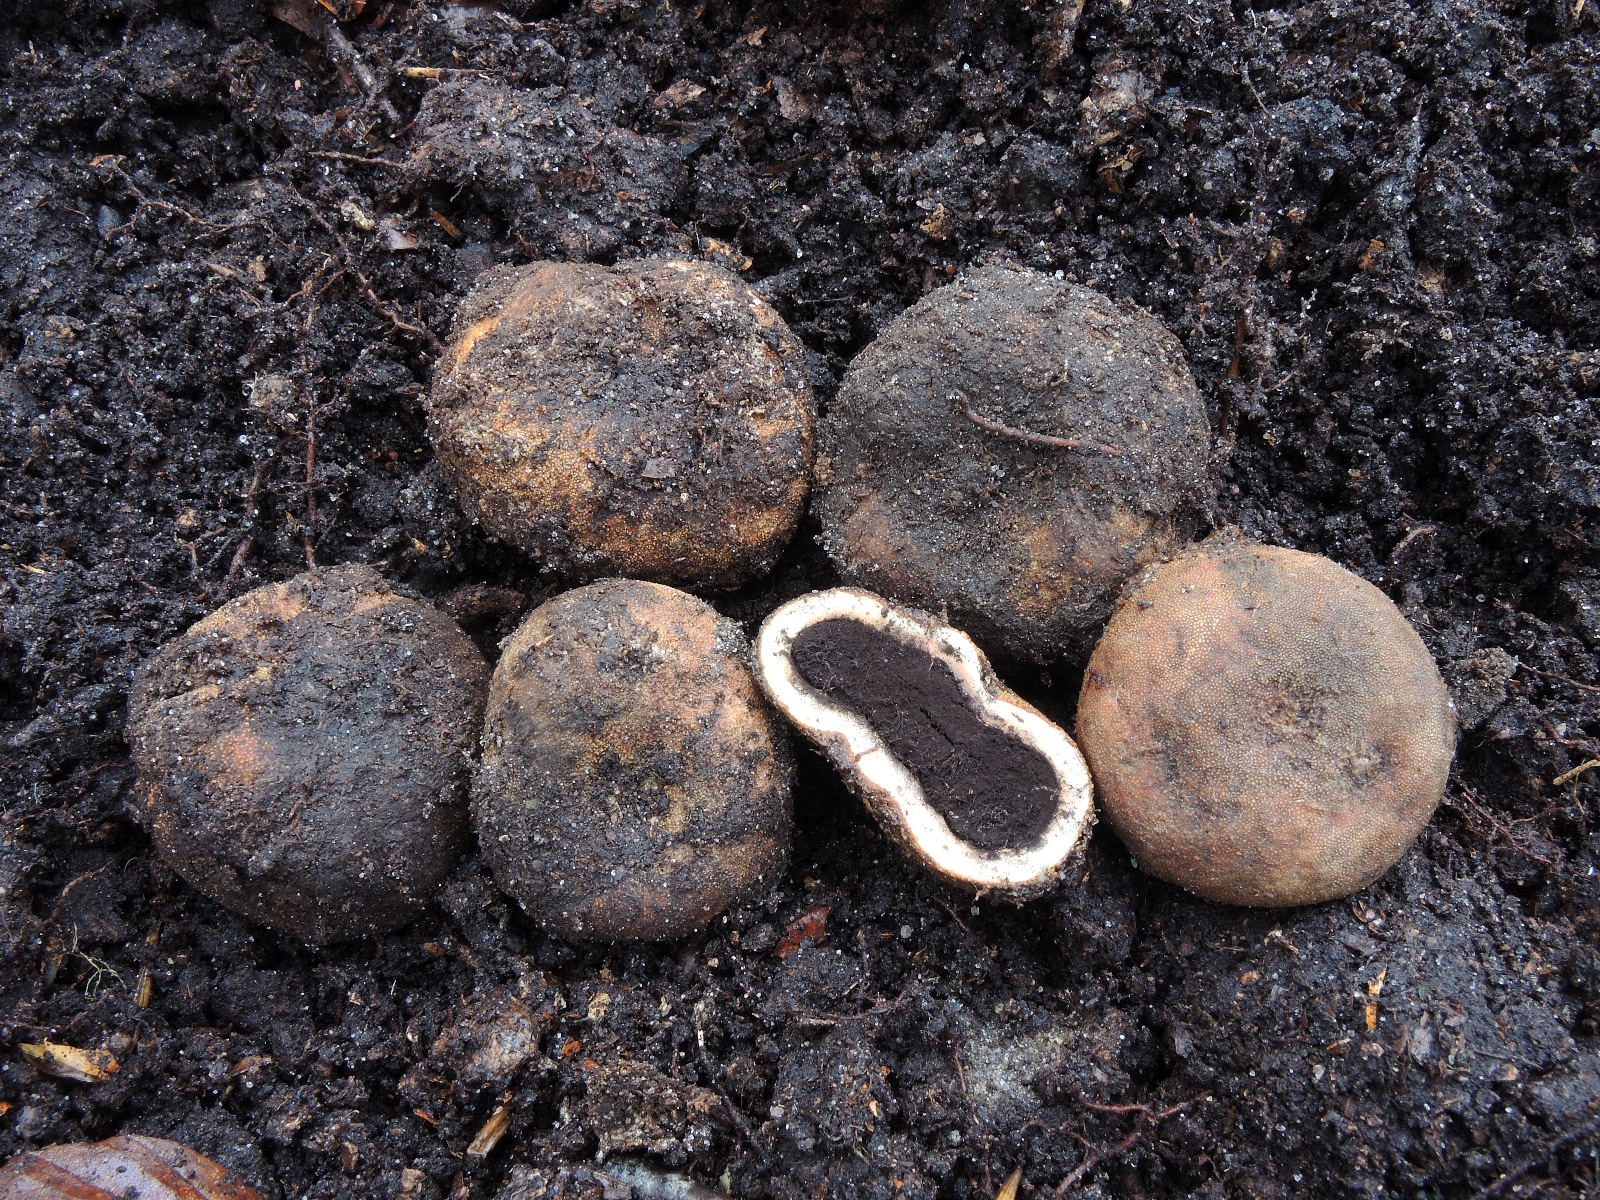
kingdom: Fungi
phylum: Ascomycota
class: Eurotiomycetes
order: Eurotiales
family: Elaphomycetaceae
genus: Elaphomyces
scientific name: Elaphomyces granulatus
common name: grynet hjortetrøffel
